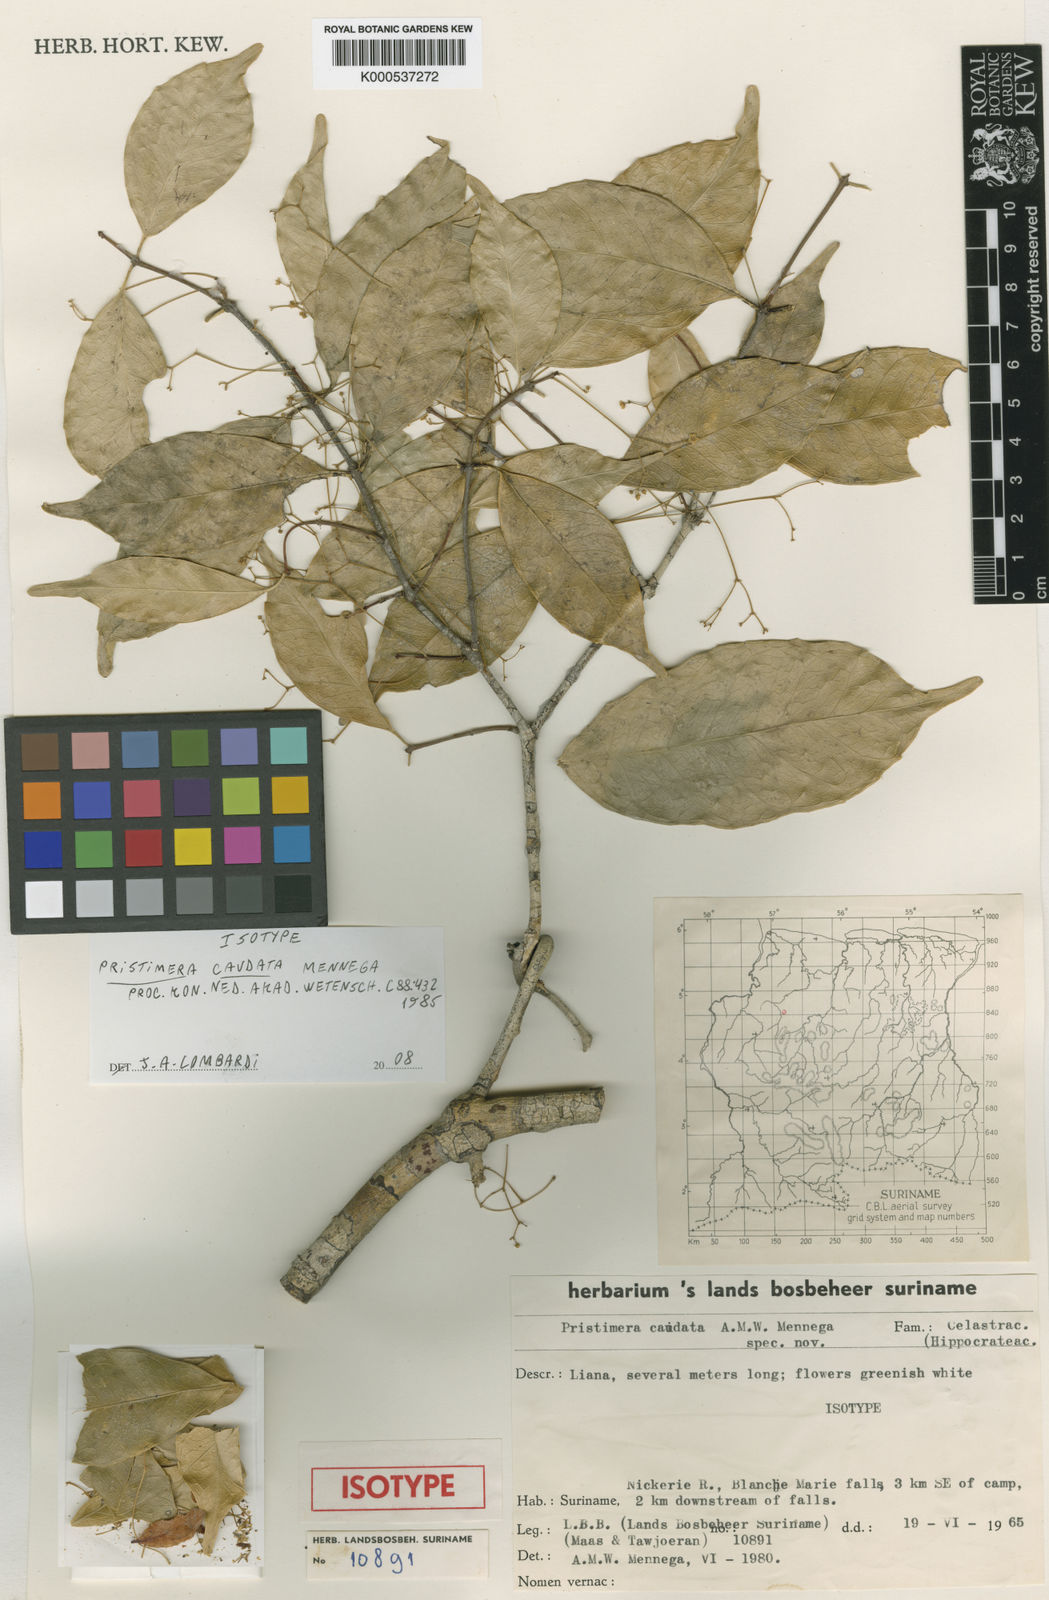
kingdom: Plantae
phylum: Tracheophyta
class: Magnoliopsida
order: Celastrales
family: Celastraceae
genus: Pristimera
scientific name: Pristimera caudata
